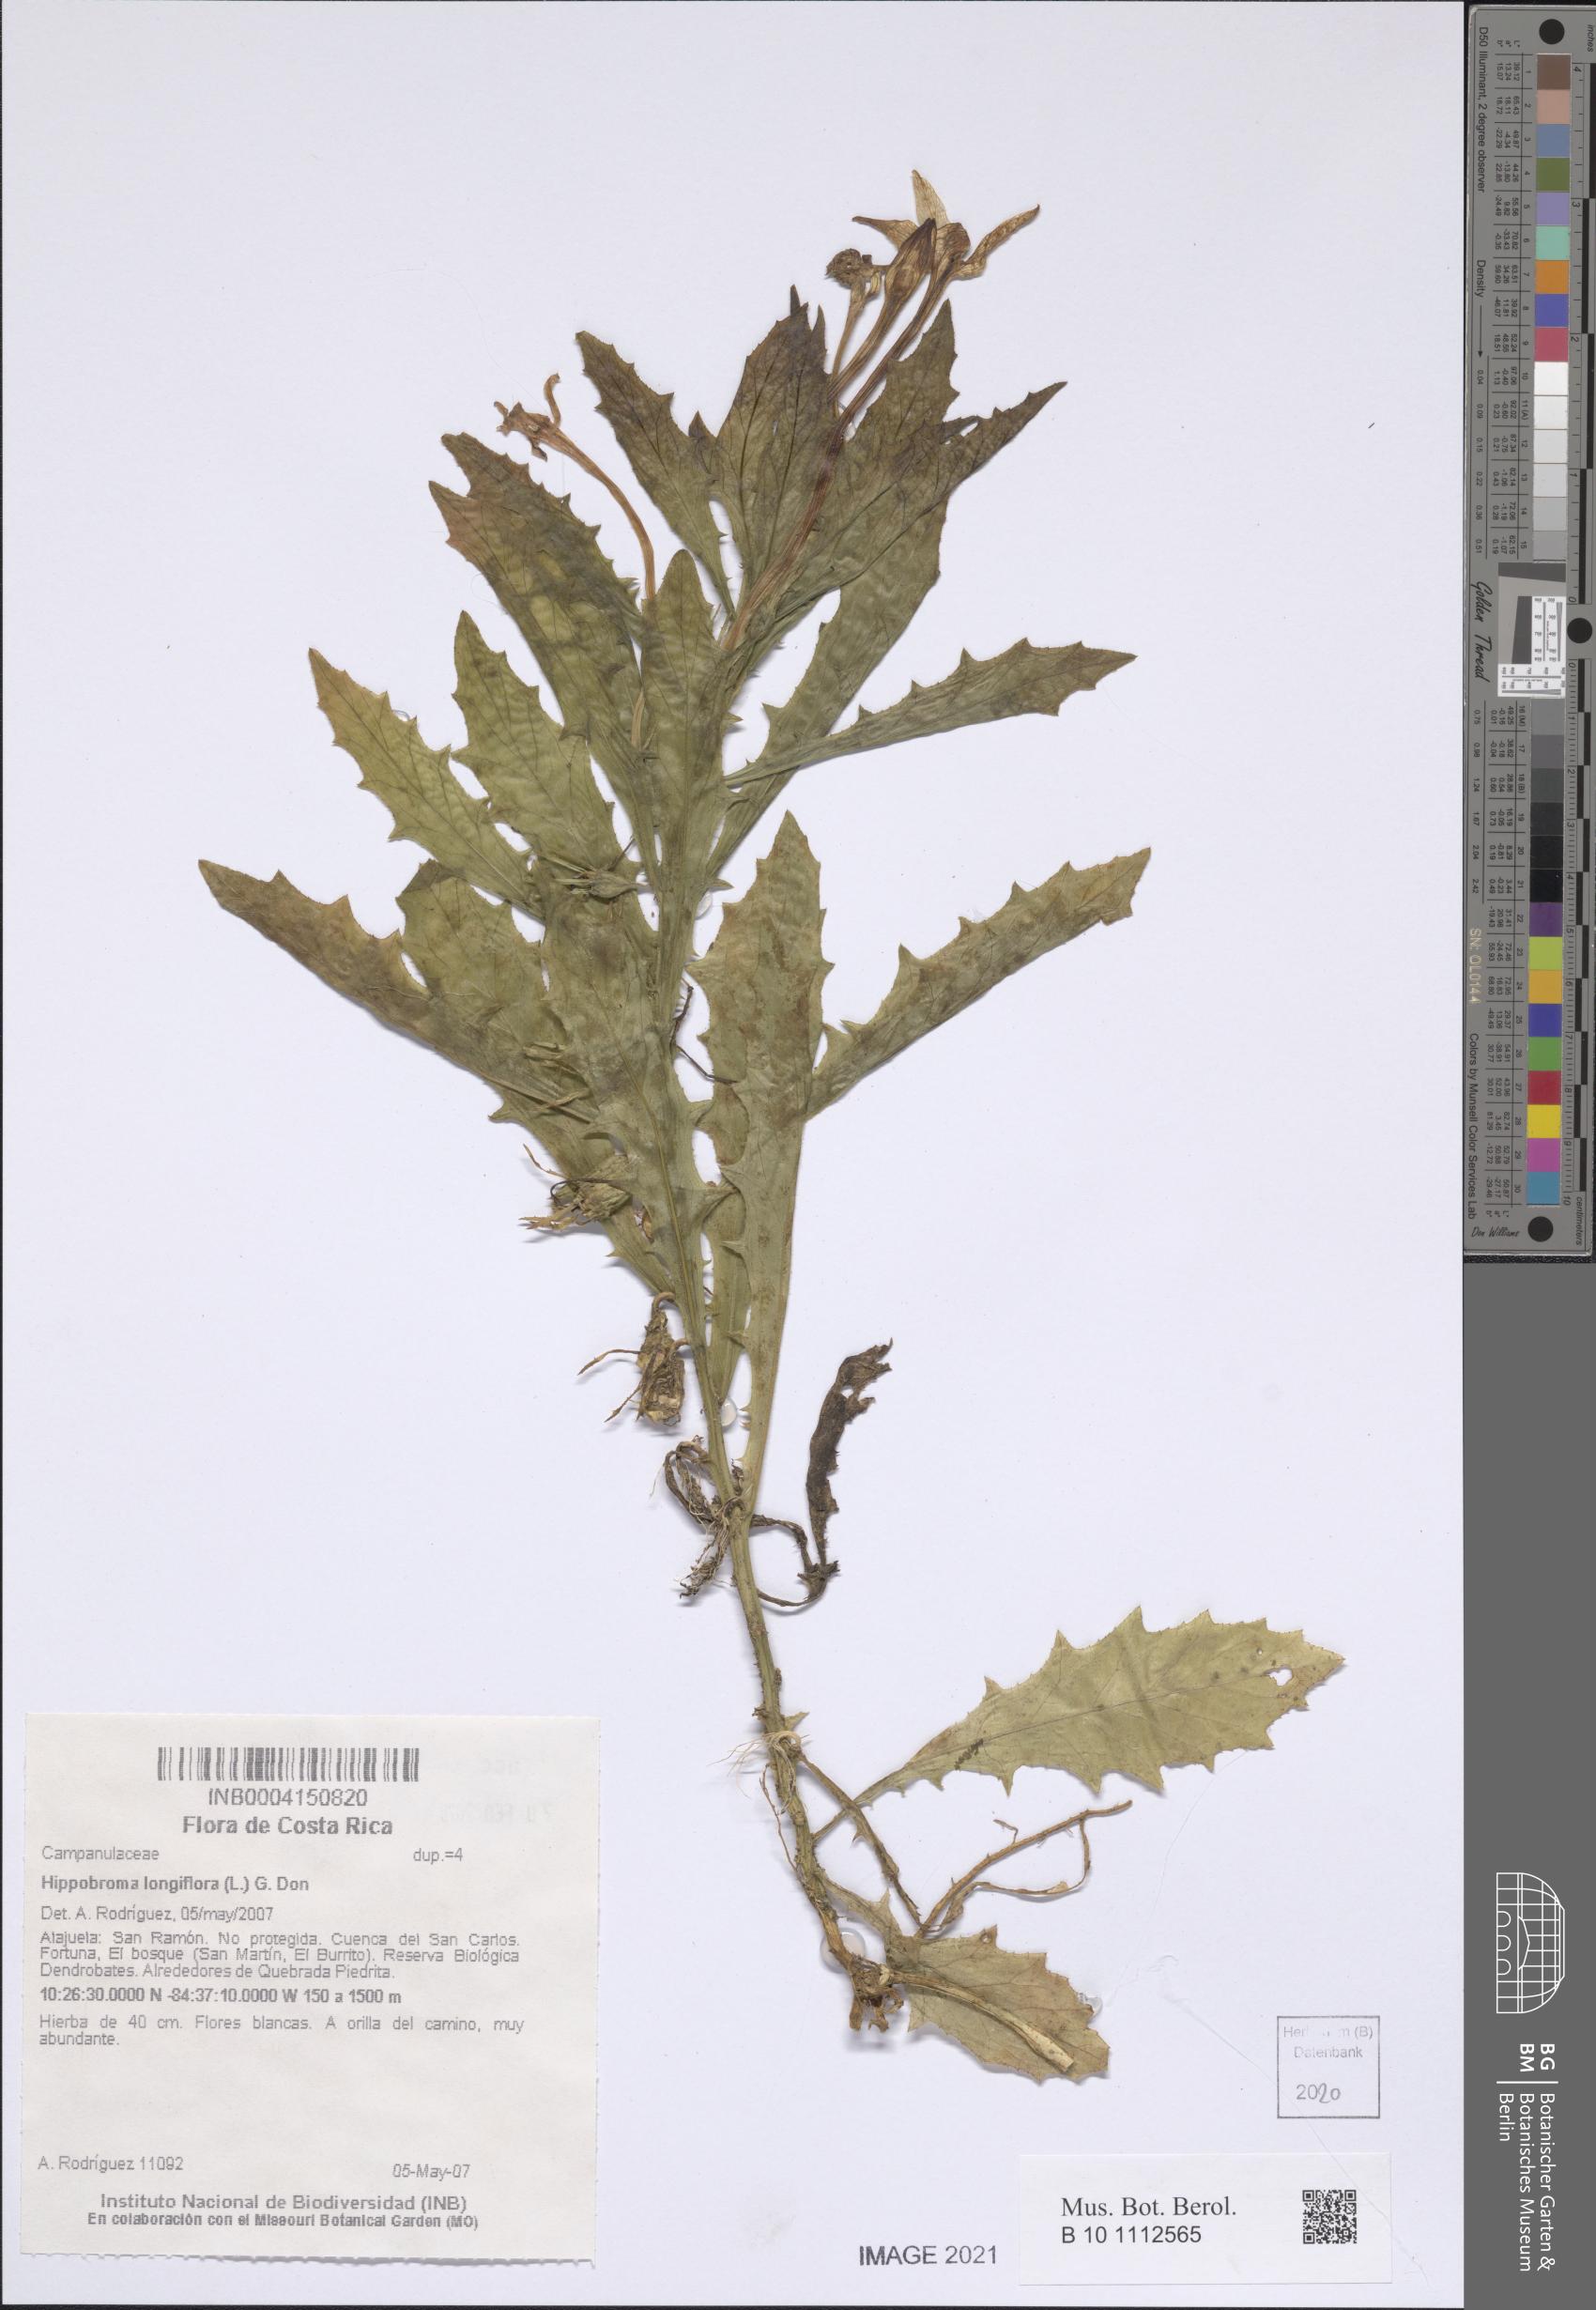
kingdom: Plantae
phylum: Tracheophyta
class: Magnoliopsida
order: Asterales
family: Campanulaceae
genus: Hippobroma
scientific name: Hippobroma longiflora
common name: Madamfate
